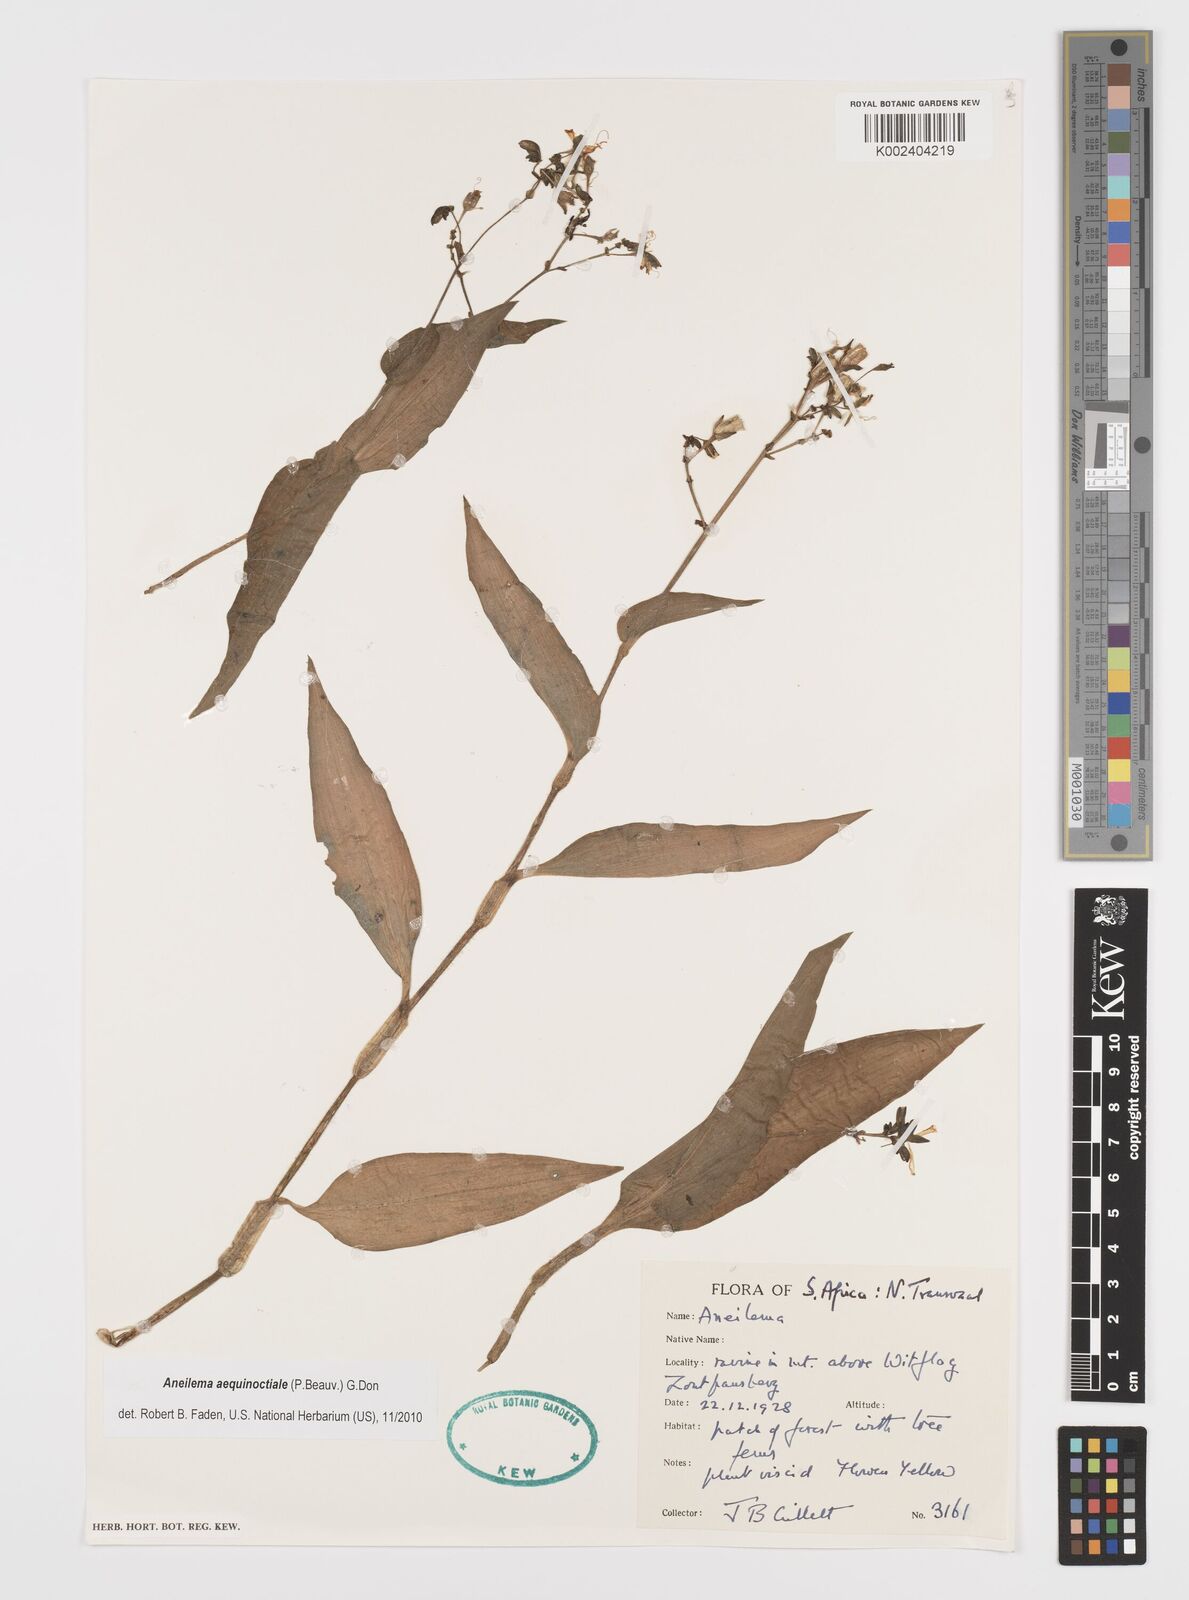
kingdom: Plantae
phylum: Tracheophyta
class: Liliopsida
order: Commelinales
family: Commelinaceae
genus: Aneilema
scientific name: Aneilema aequinoctiale
